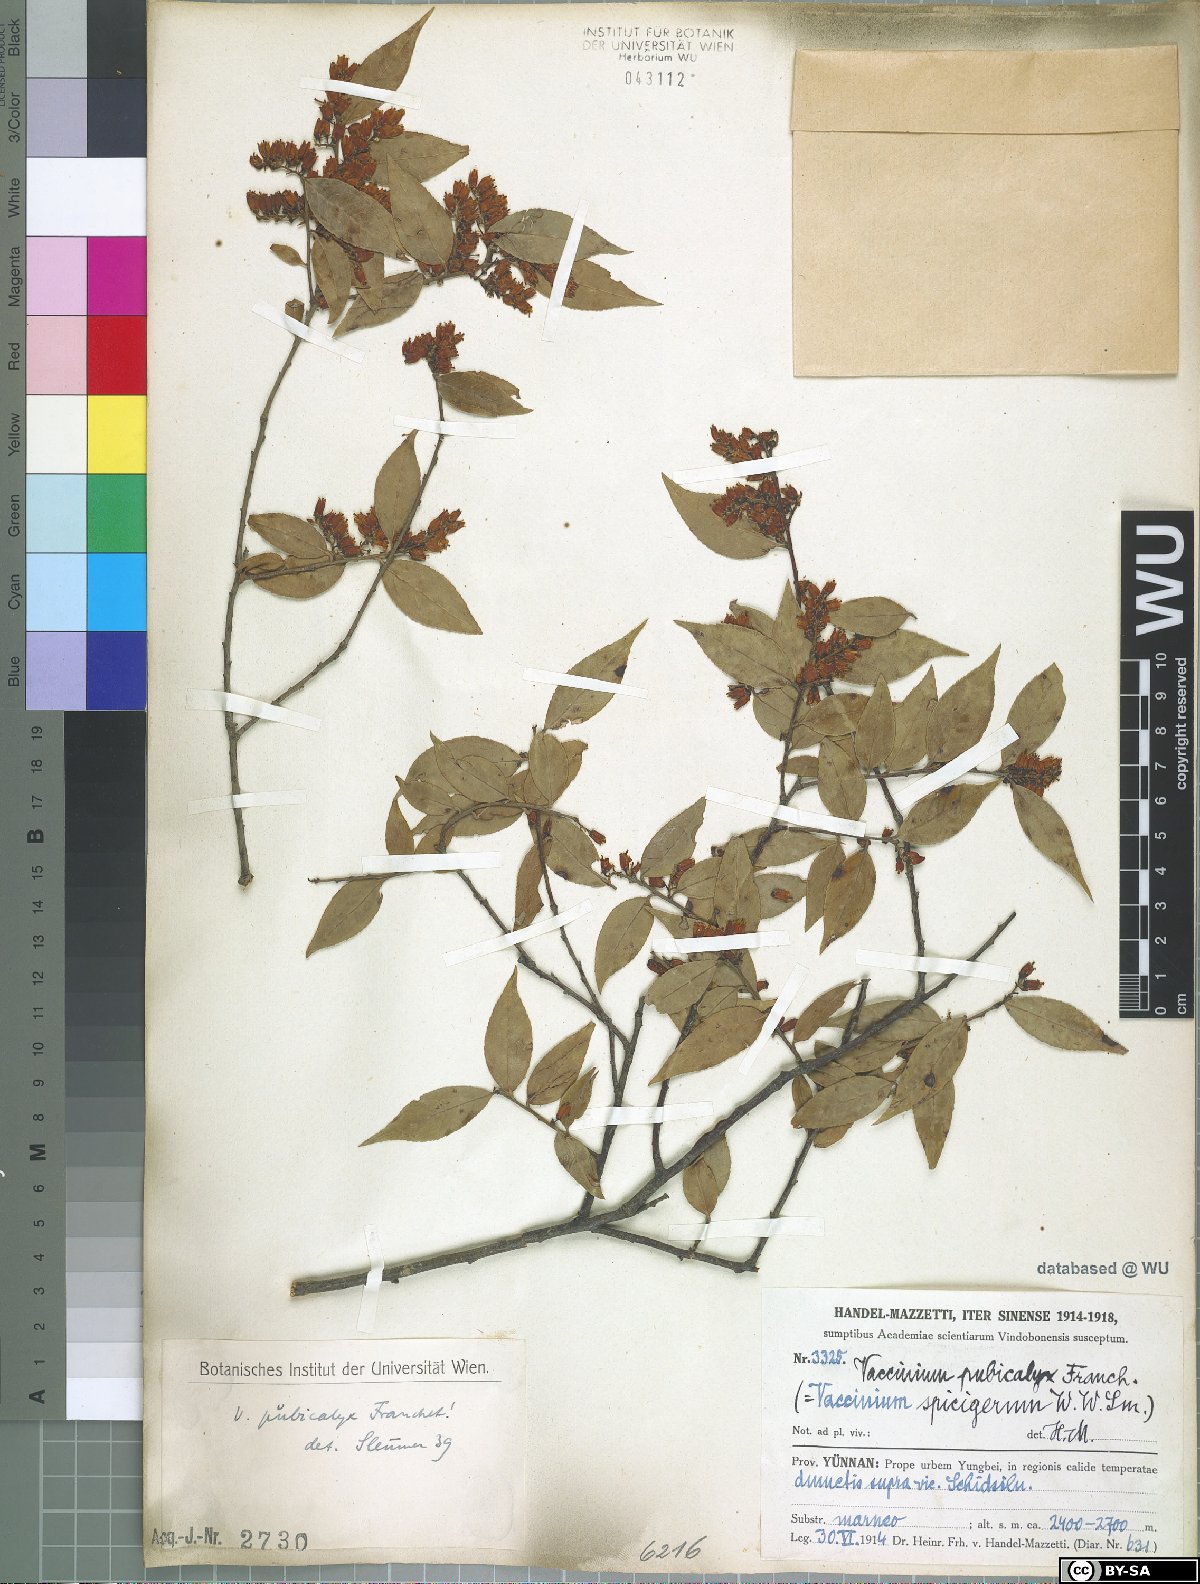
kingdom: Plantae
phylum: Tracheophyta
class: Magnoliopsida
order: Ericales
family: Ericaceae
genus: Vaccinium
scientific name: Vaccinium pubicalyx
